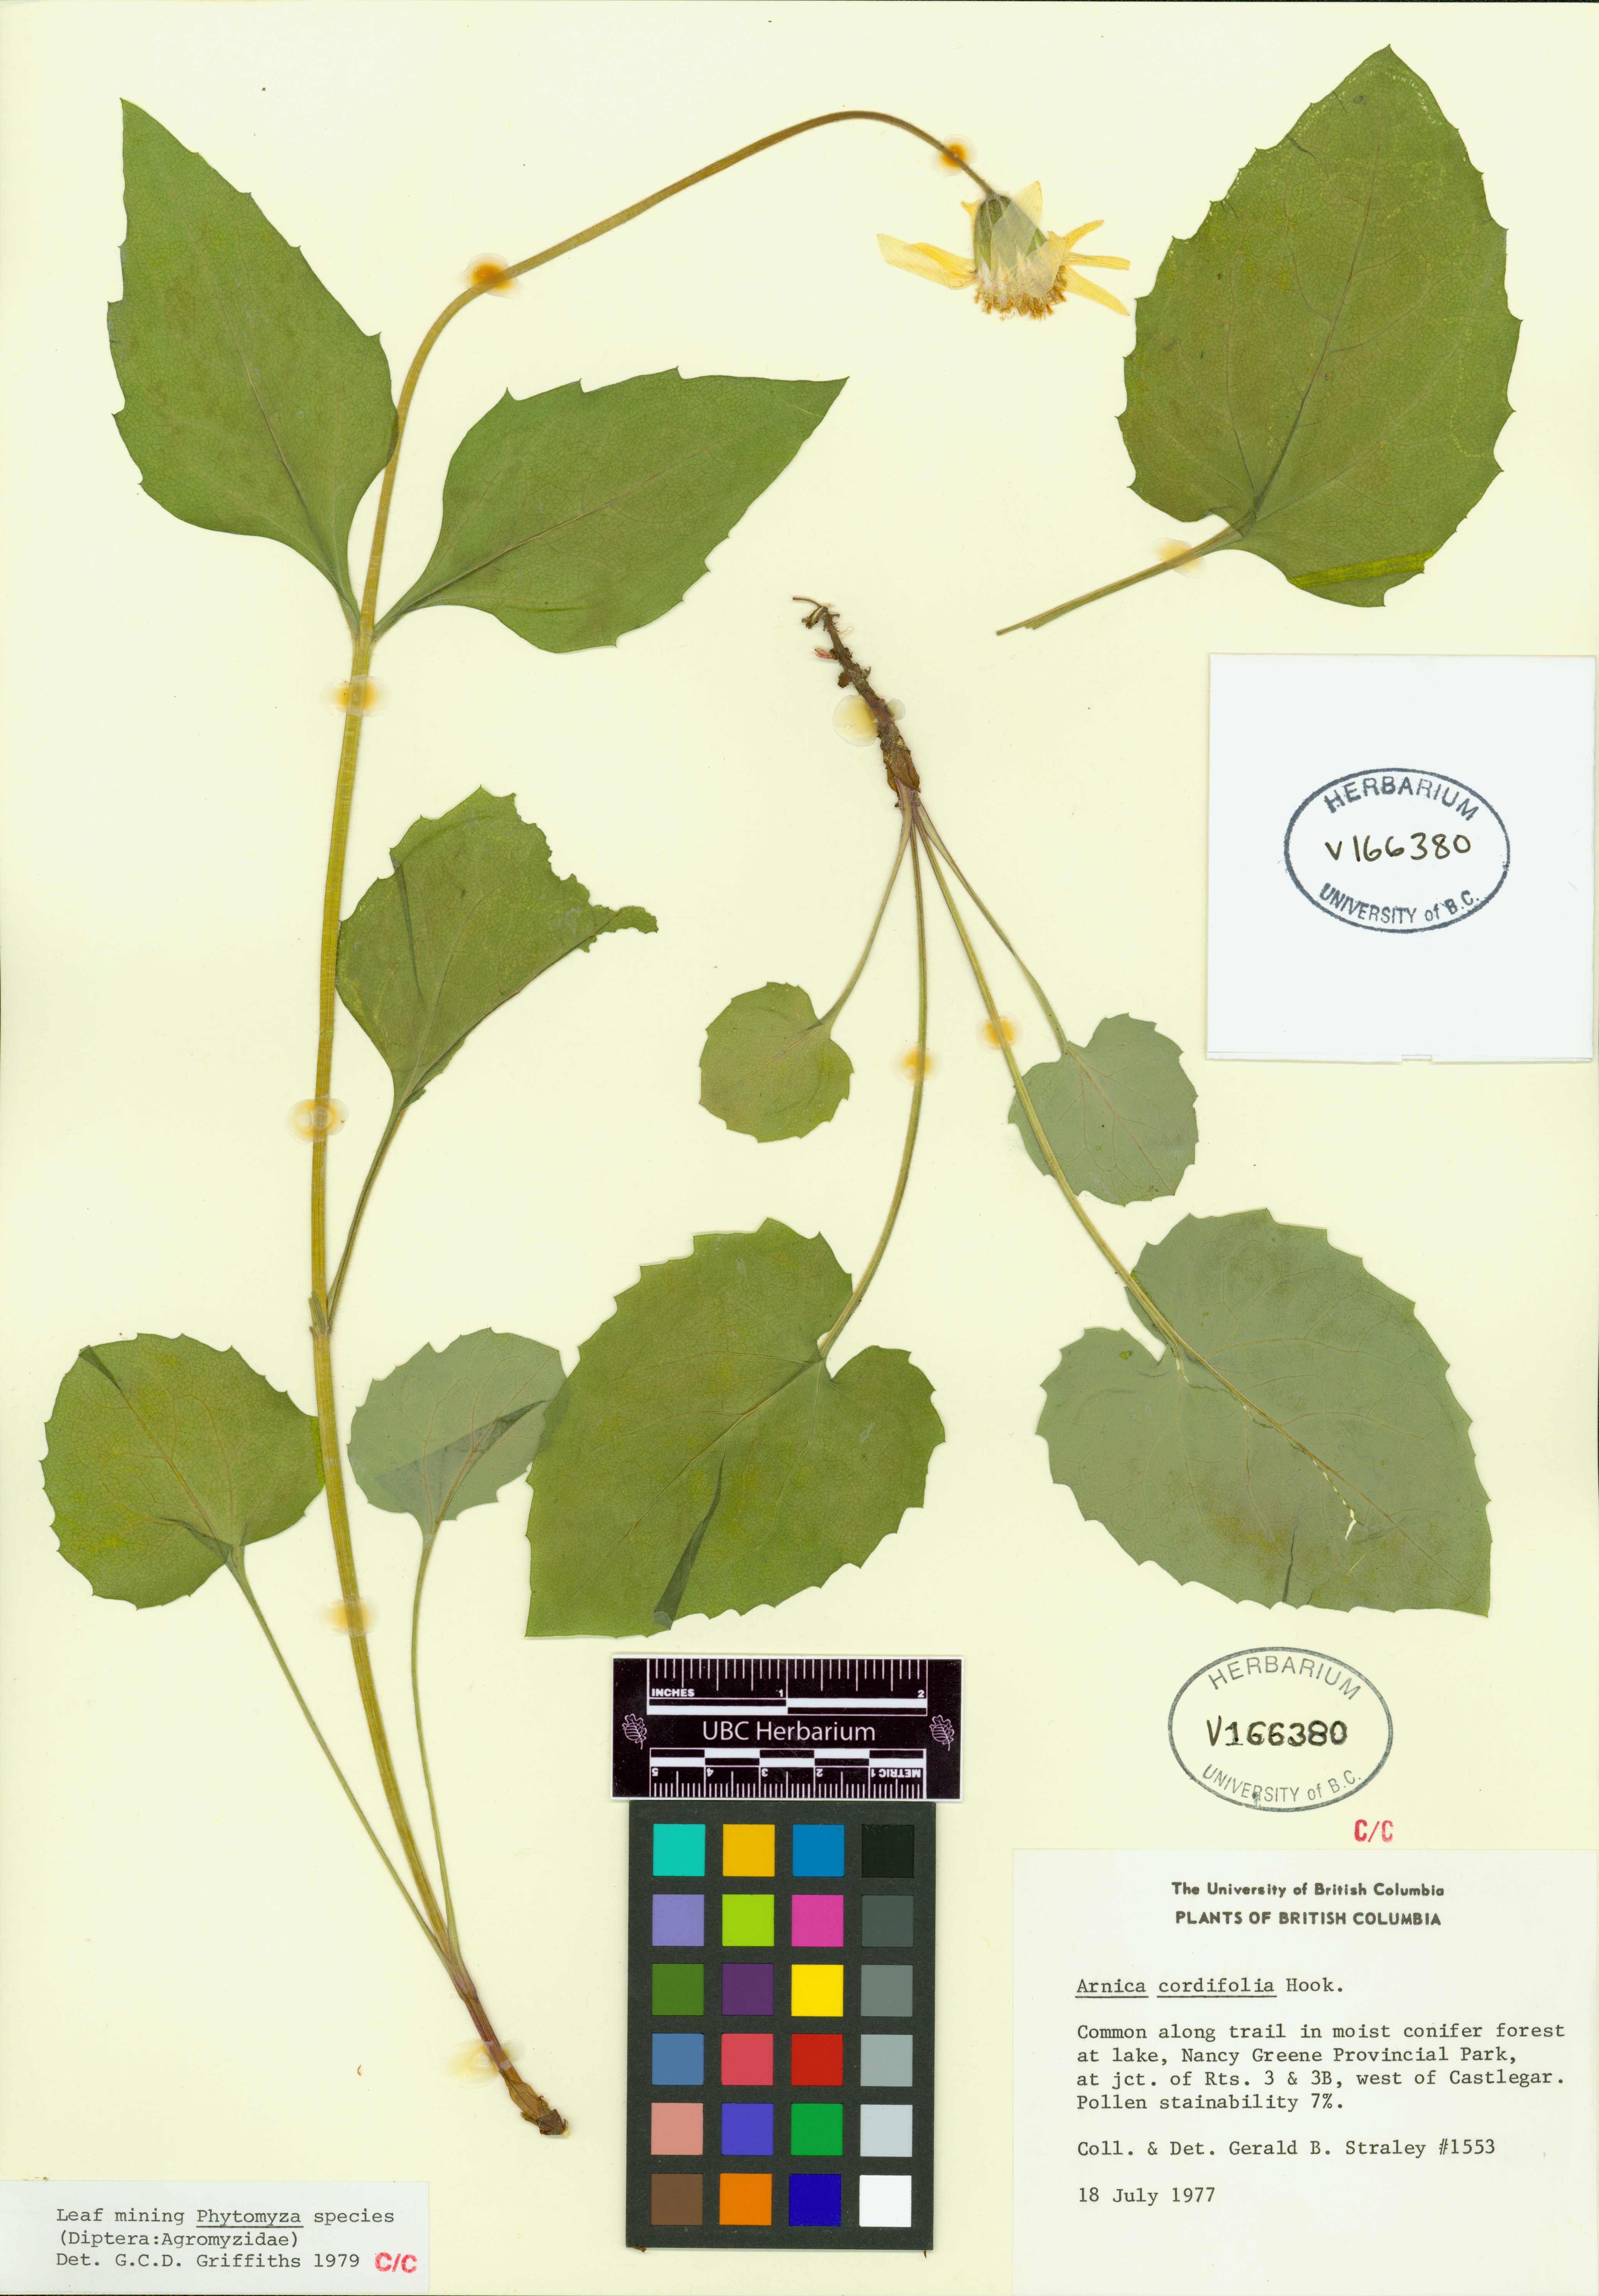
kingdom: Plantae
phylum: Tracheophyta
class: Magnoliopsida
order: Asterales
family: Asteraceae
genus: Arnica
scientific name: Arnica cordifolia
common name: Heart-leaf arnica
